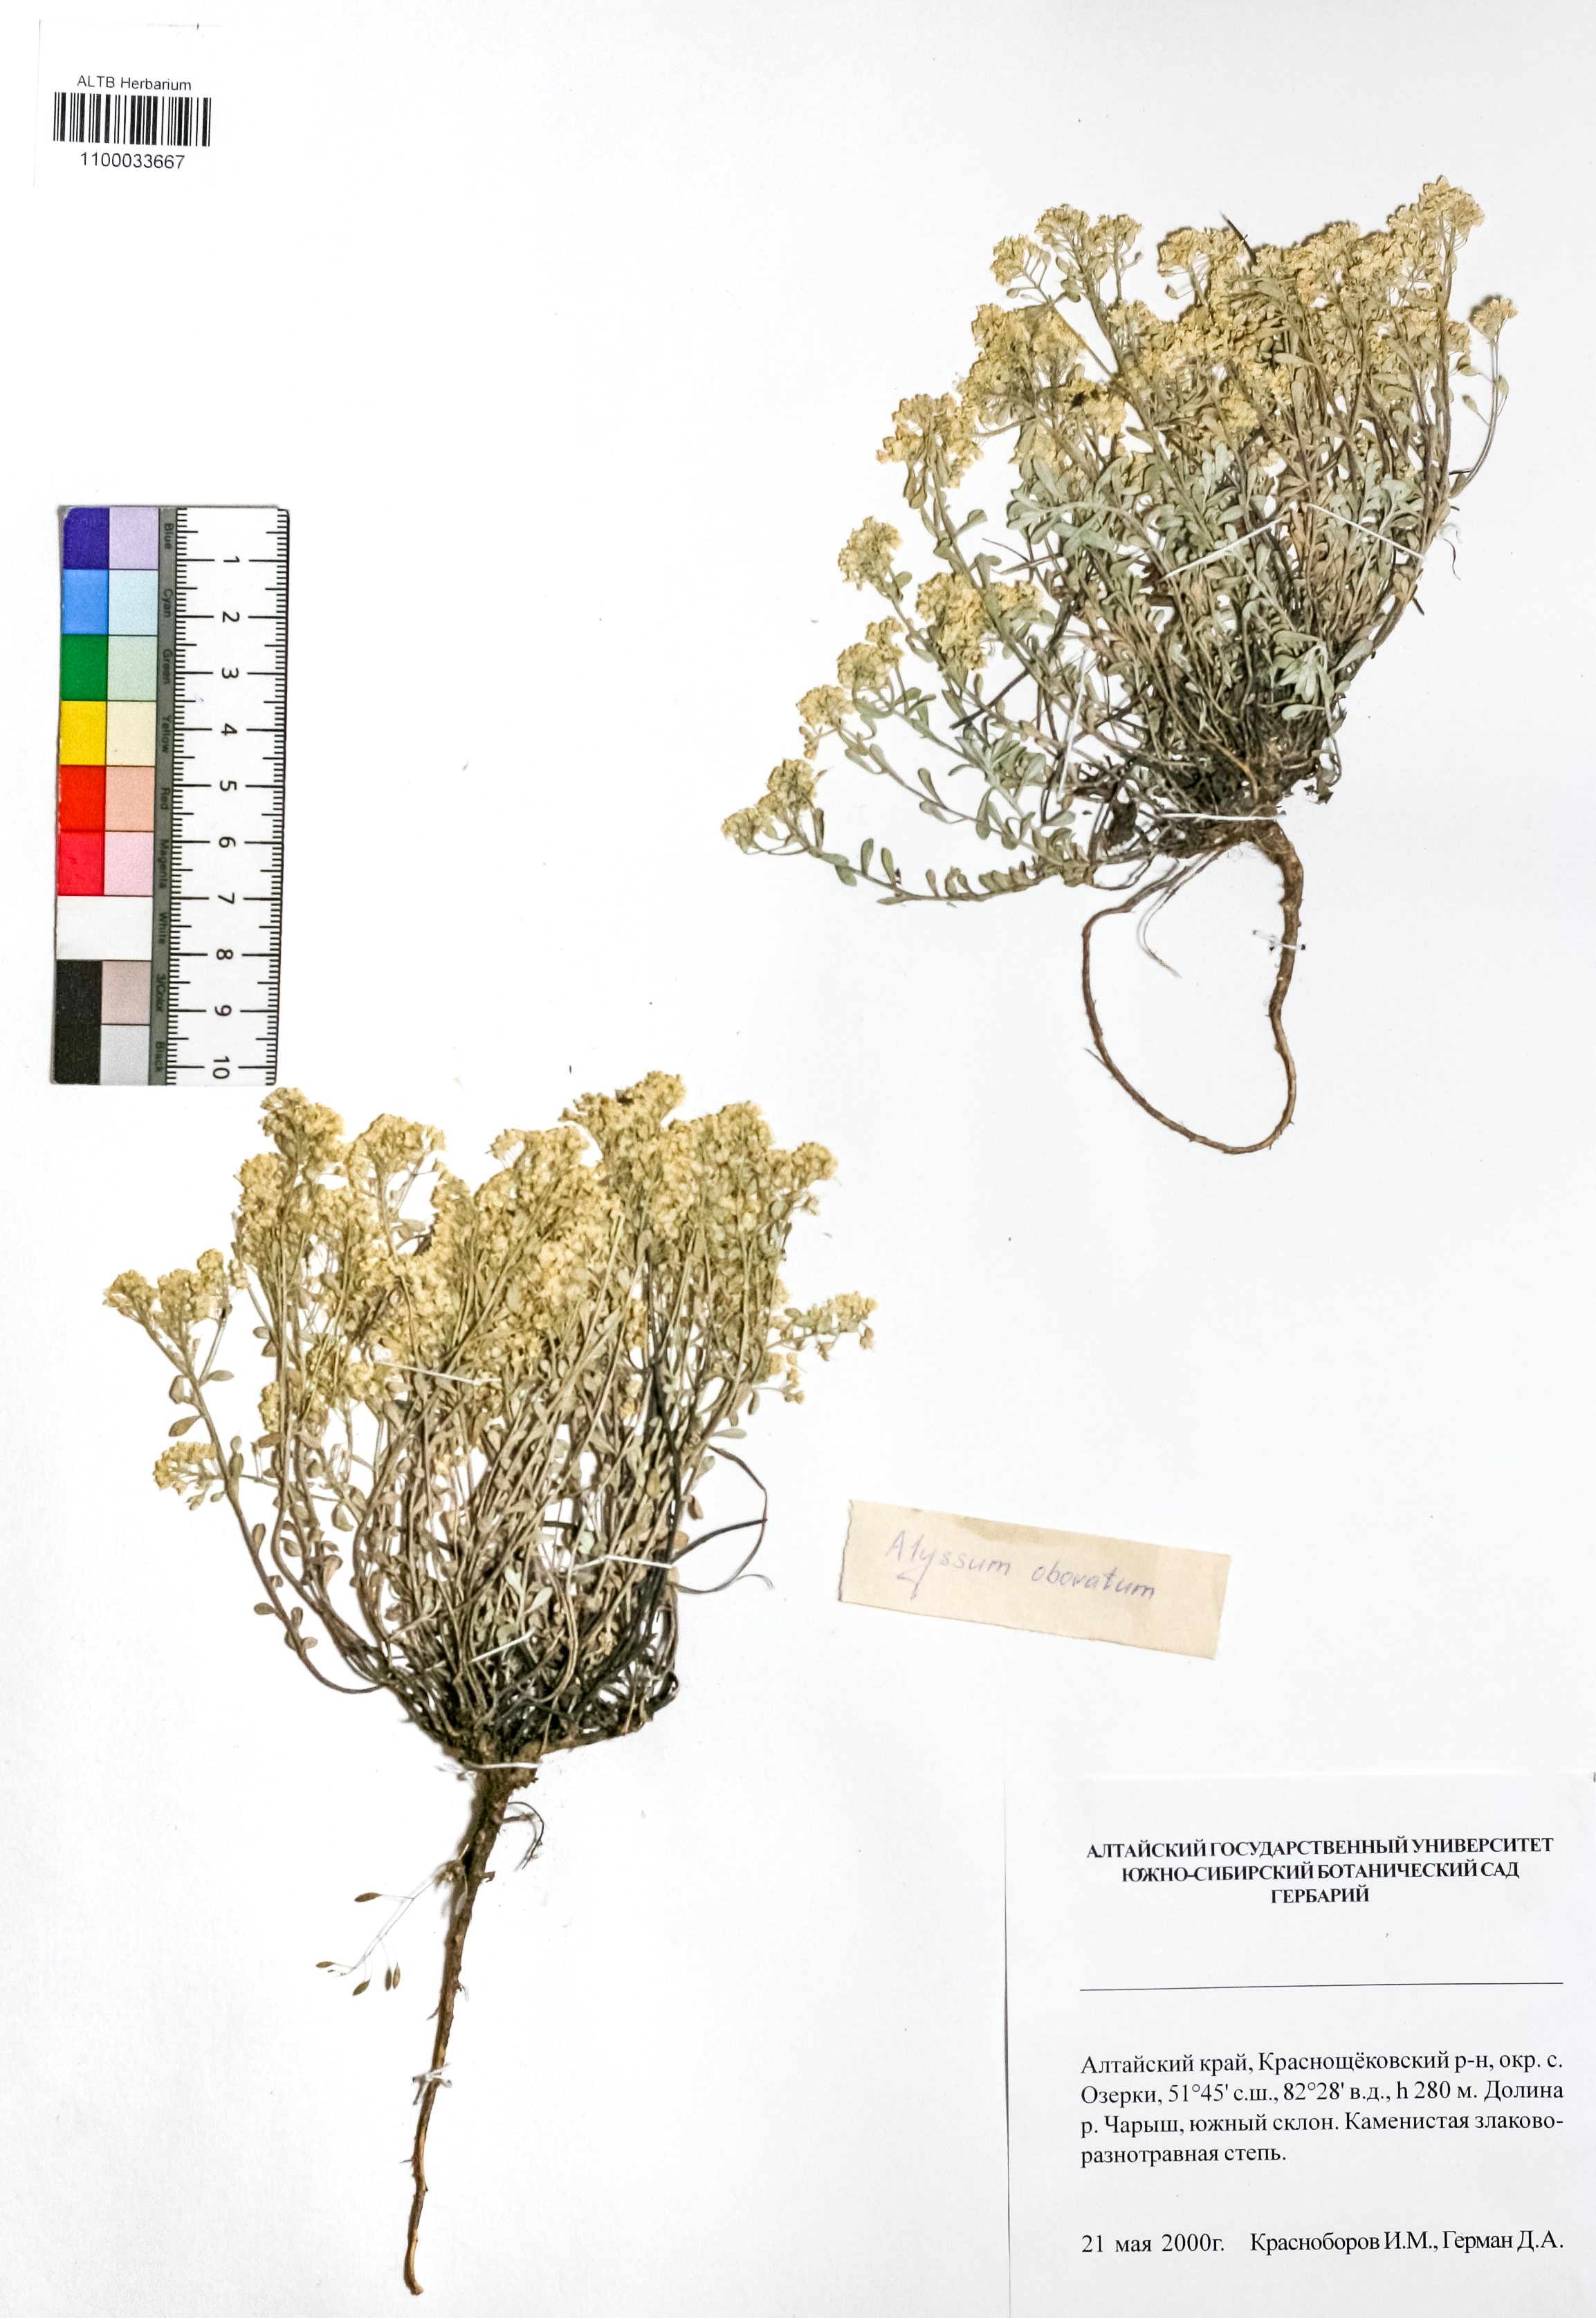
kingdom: Plantae
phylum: Tracheophyta
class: Magnoliopsida
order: Brassicales
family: Brassicaceae
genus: Odontarrhena
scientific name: Odontarrhena obovata
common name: American alyssum
